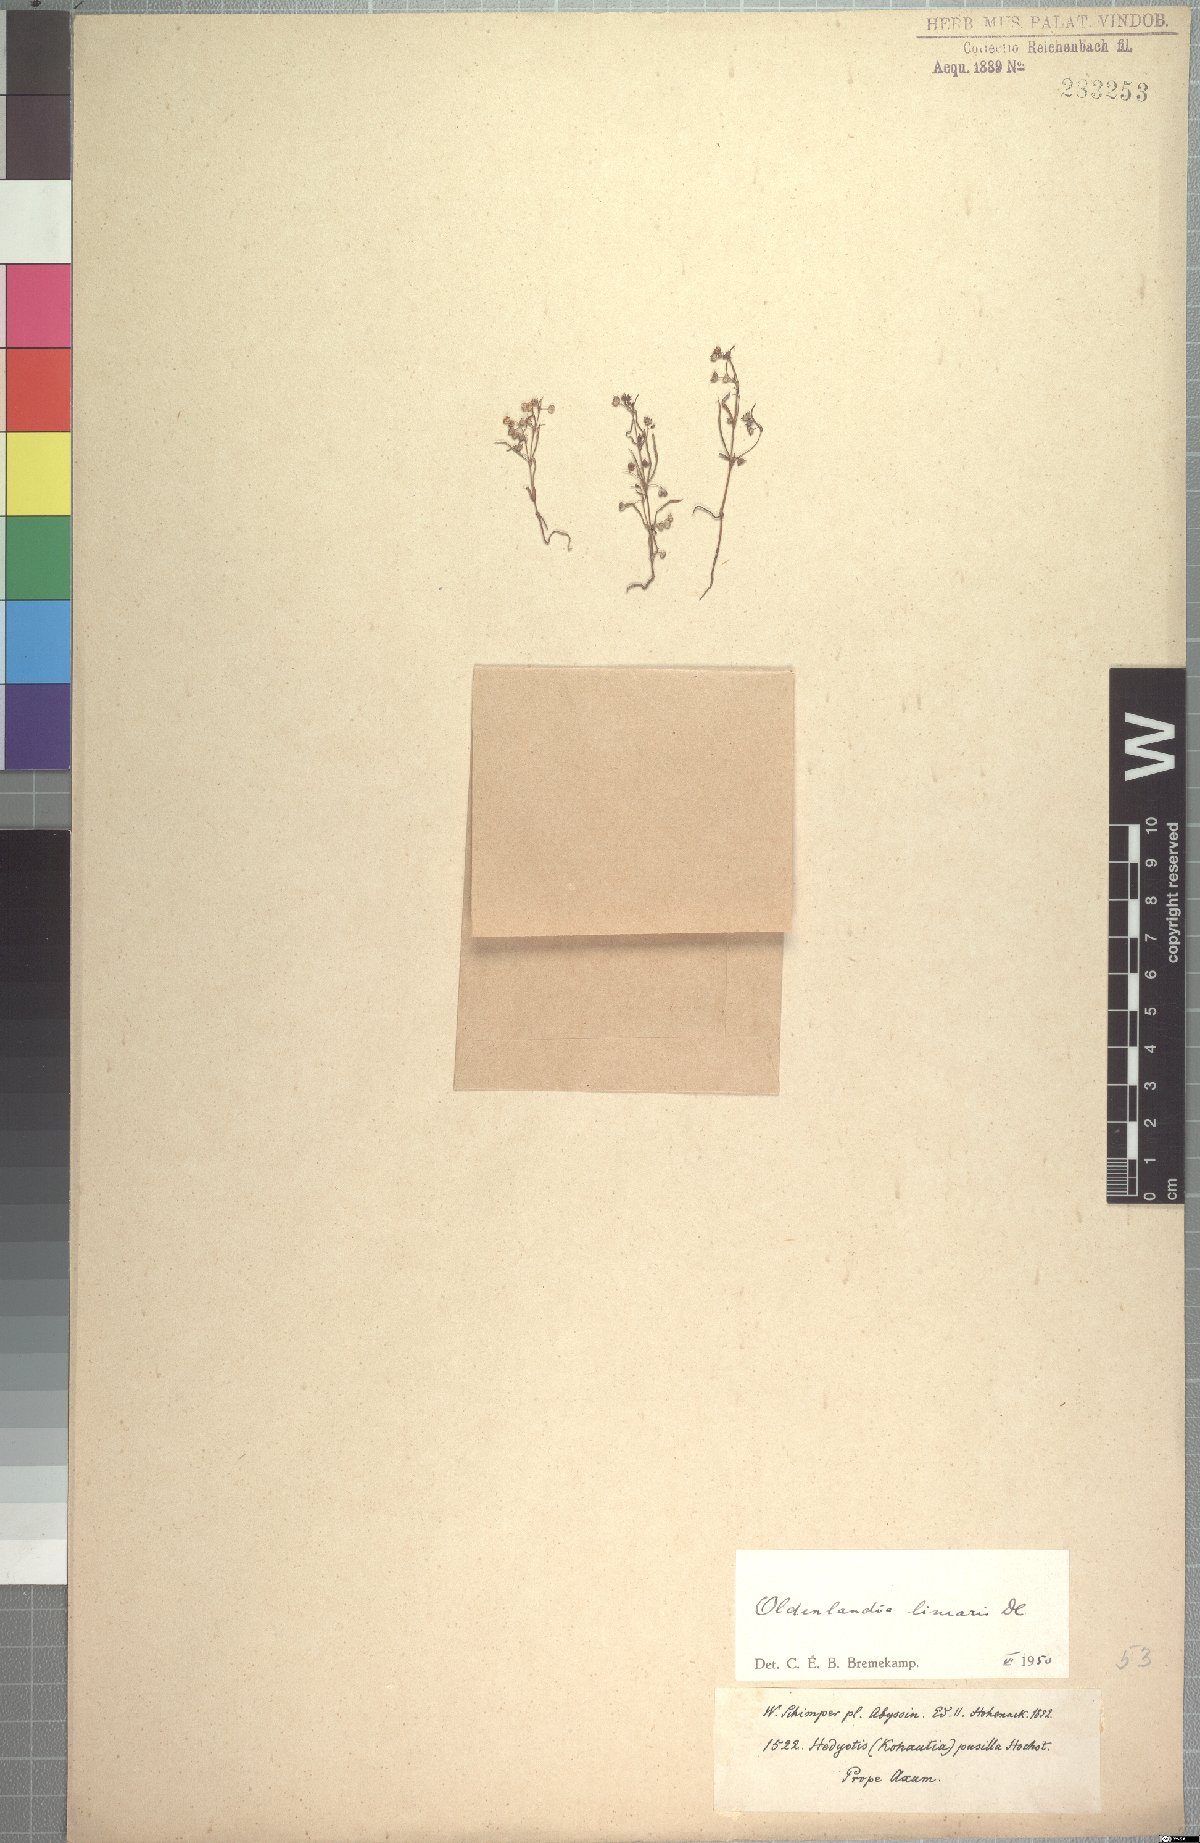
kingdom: Plantae
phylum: Tracheophyta
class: Magnoliopsida
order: Gentianales
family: Rubiaceae
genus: Oldenlandia
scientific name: Oldenlandia corymbosa
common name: Flat-top mille graines
